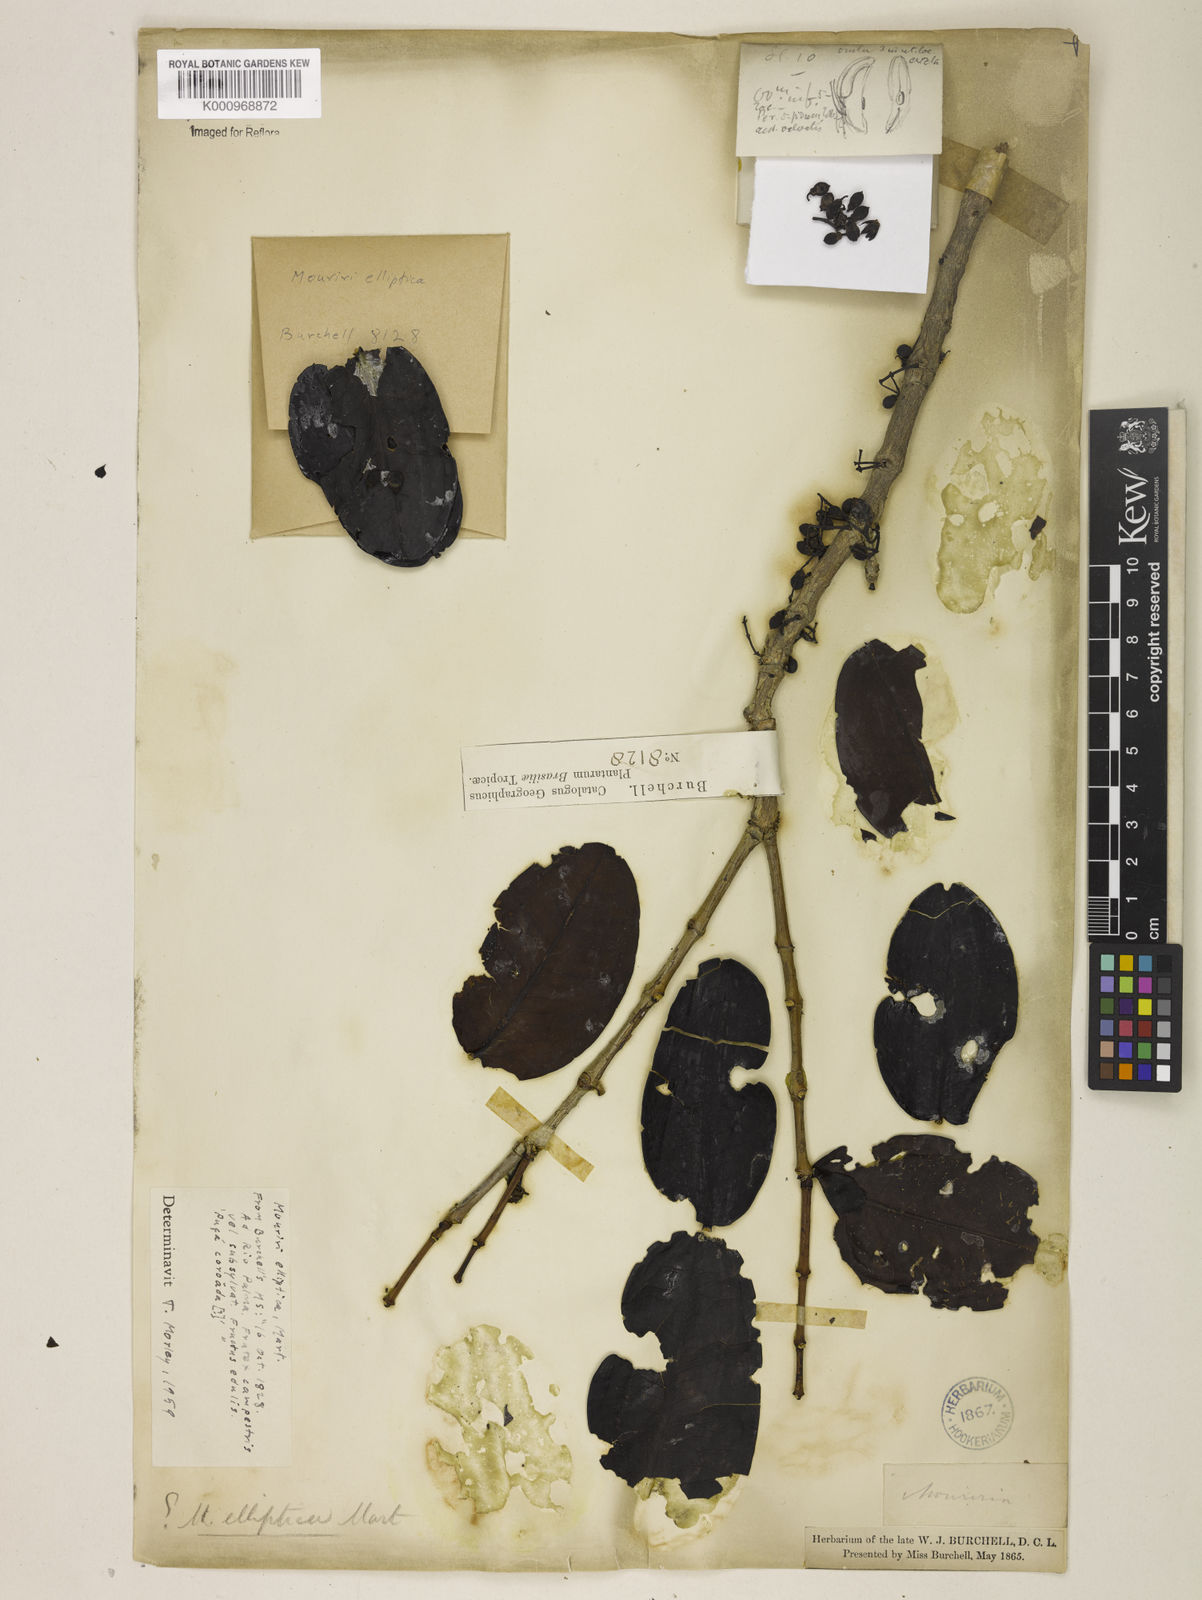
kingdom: Plantae
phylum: Tracheophyta
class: Magnoliopsida
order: Myrtales
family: Melastomataceae
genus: Mouriri
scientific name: Mouriri elliptica
